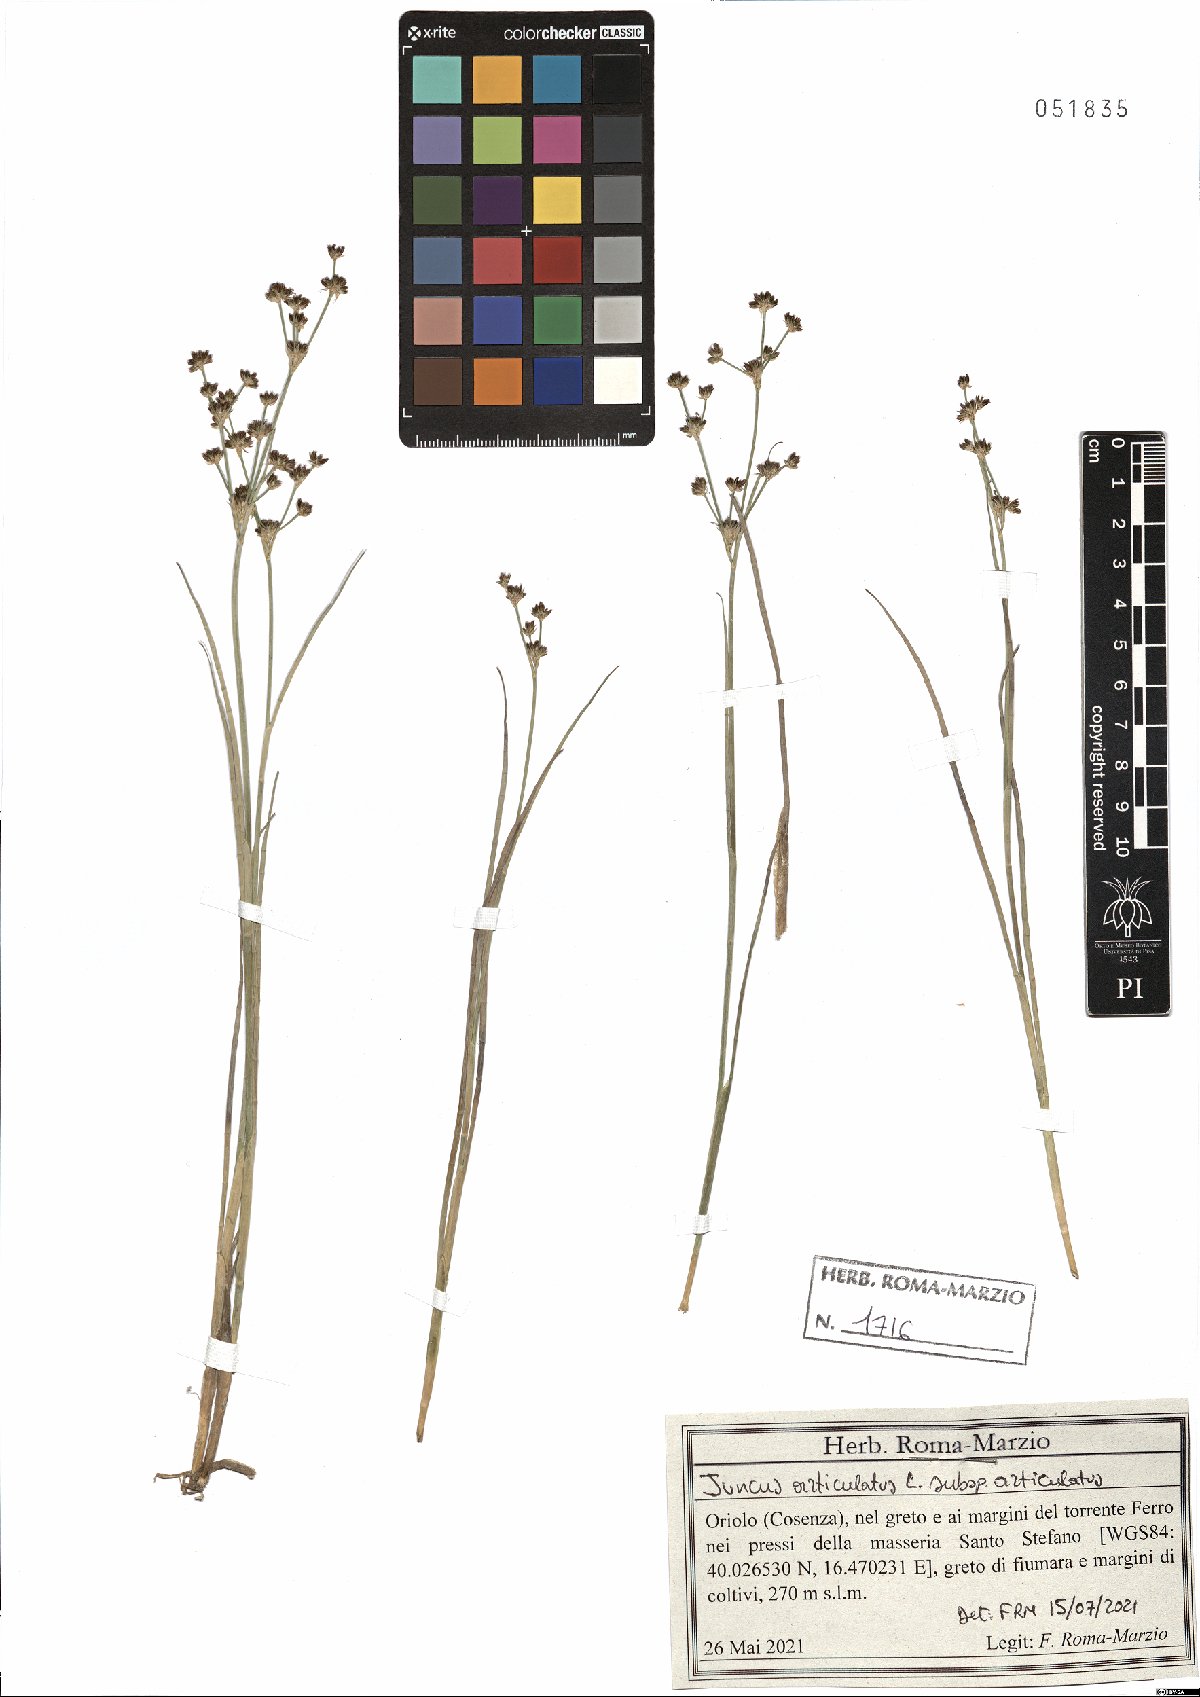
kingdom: Plantae
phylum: Tracheophyta
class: Liliopsida
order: Poales
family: Juncaceae
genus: Juncus
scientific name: Juncus articulatus
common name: Jointed rush
